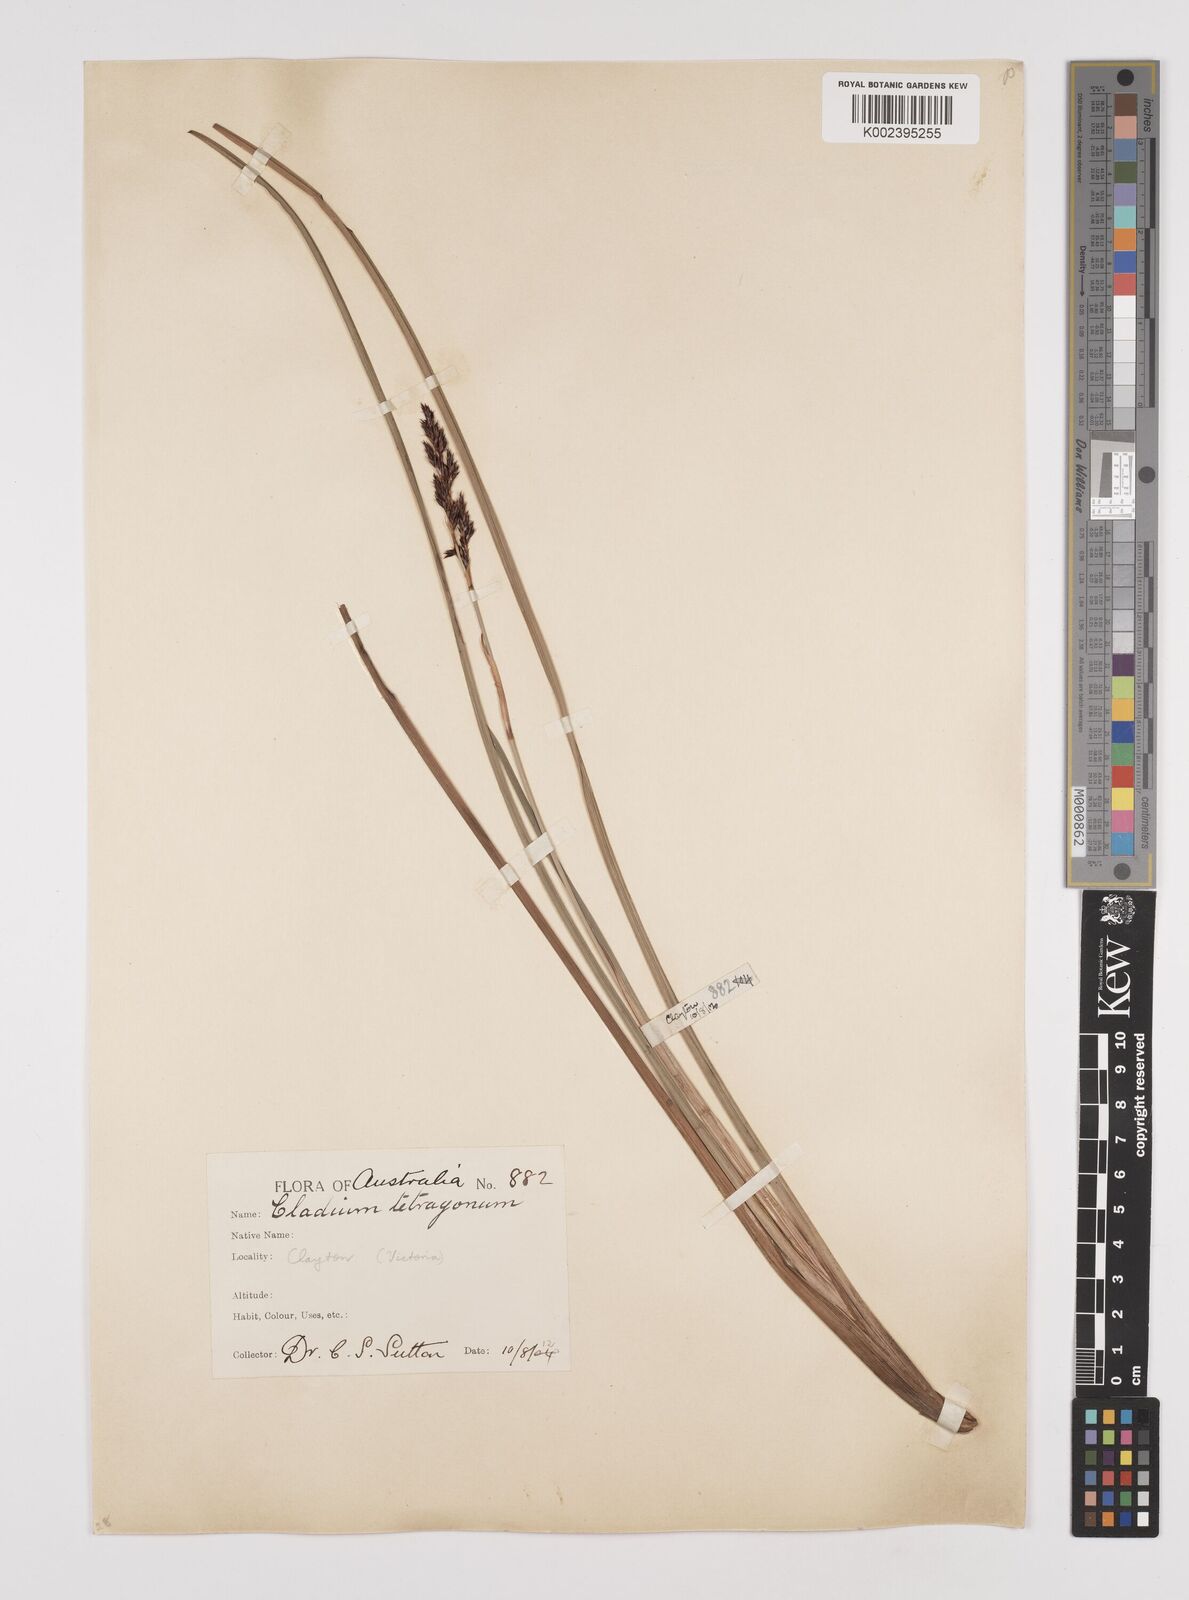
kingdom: Plantae
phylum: Tracheophyta
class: Liliopsida
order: Poales
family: Cyperaceae
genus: Machaerina
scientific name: Machaerina tetragona
